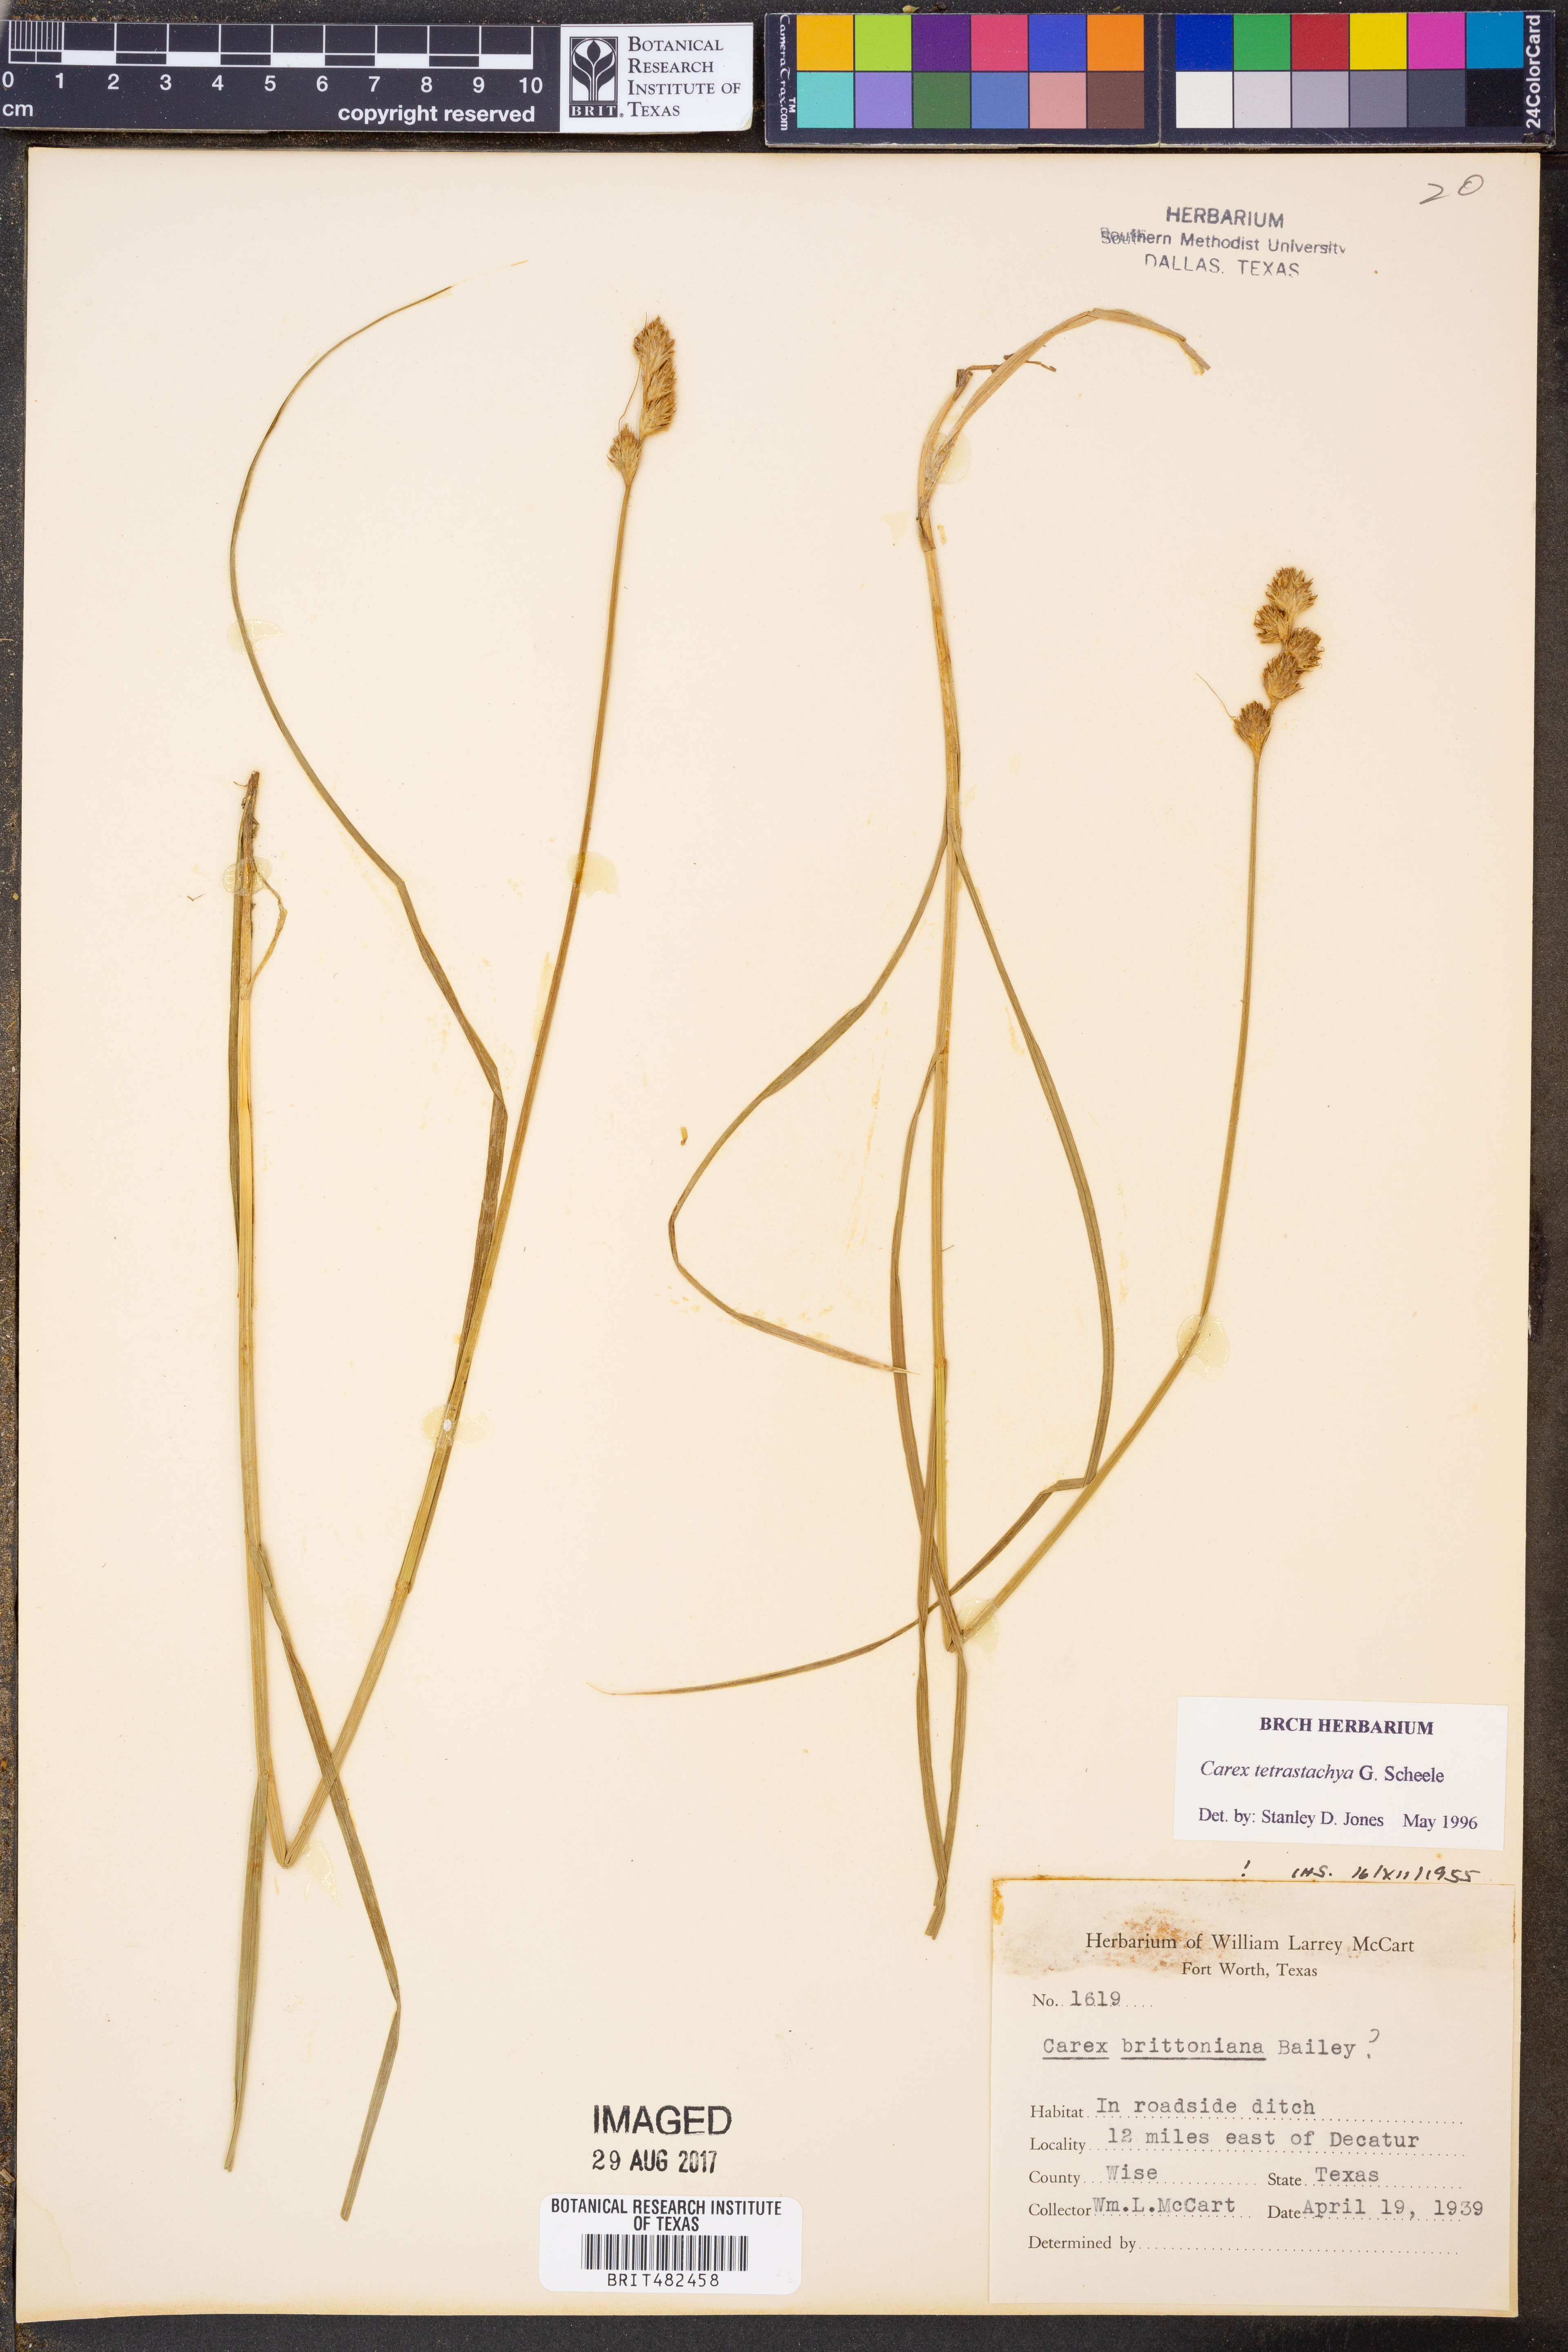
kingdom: Plantae
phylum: Tracheophyta
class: Liliopsida
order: Poales
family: Cyperaceae
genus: Carex
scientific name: Carex tetrastachya
